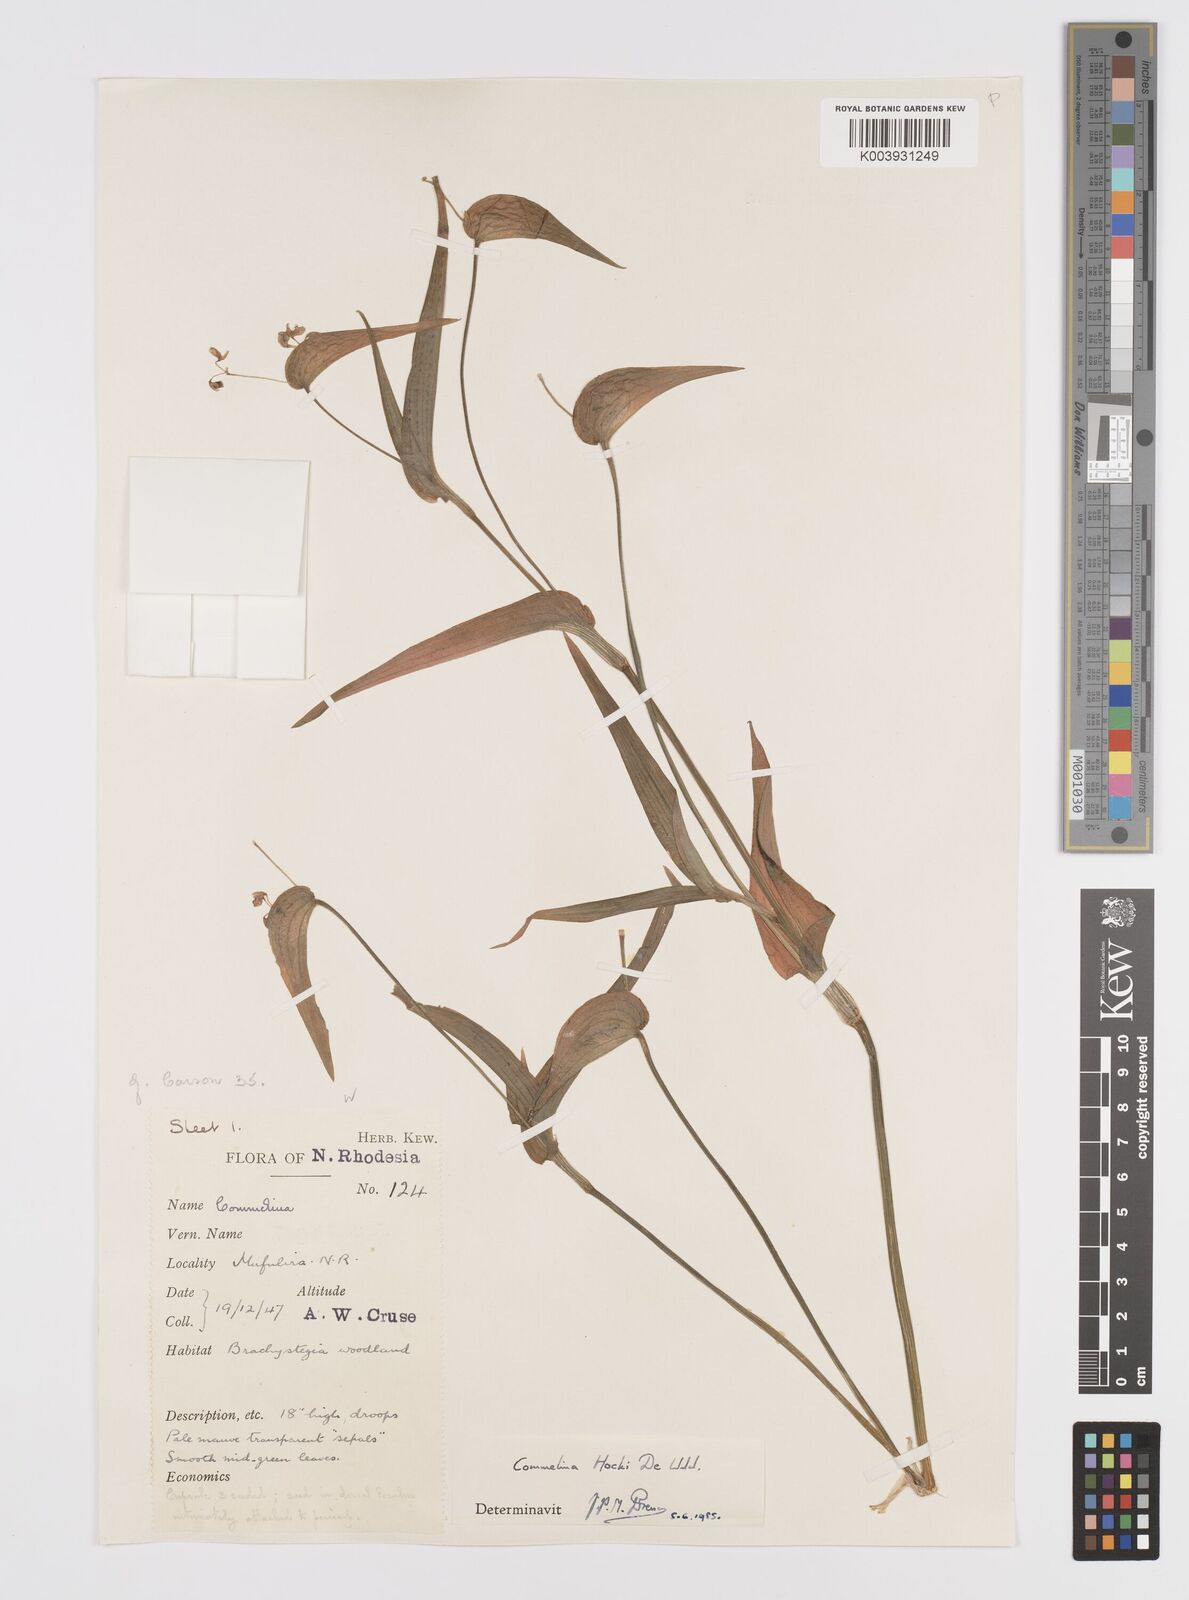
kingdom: Plantae
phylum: Tracheophyta
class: Liliopsida
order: Commelinales
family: Commelinaceae
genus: Commelina
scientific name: Commelina hockii
